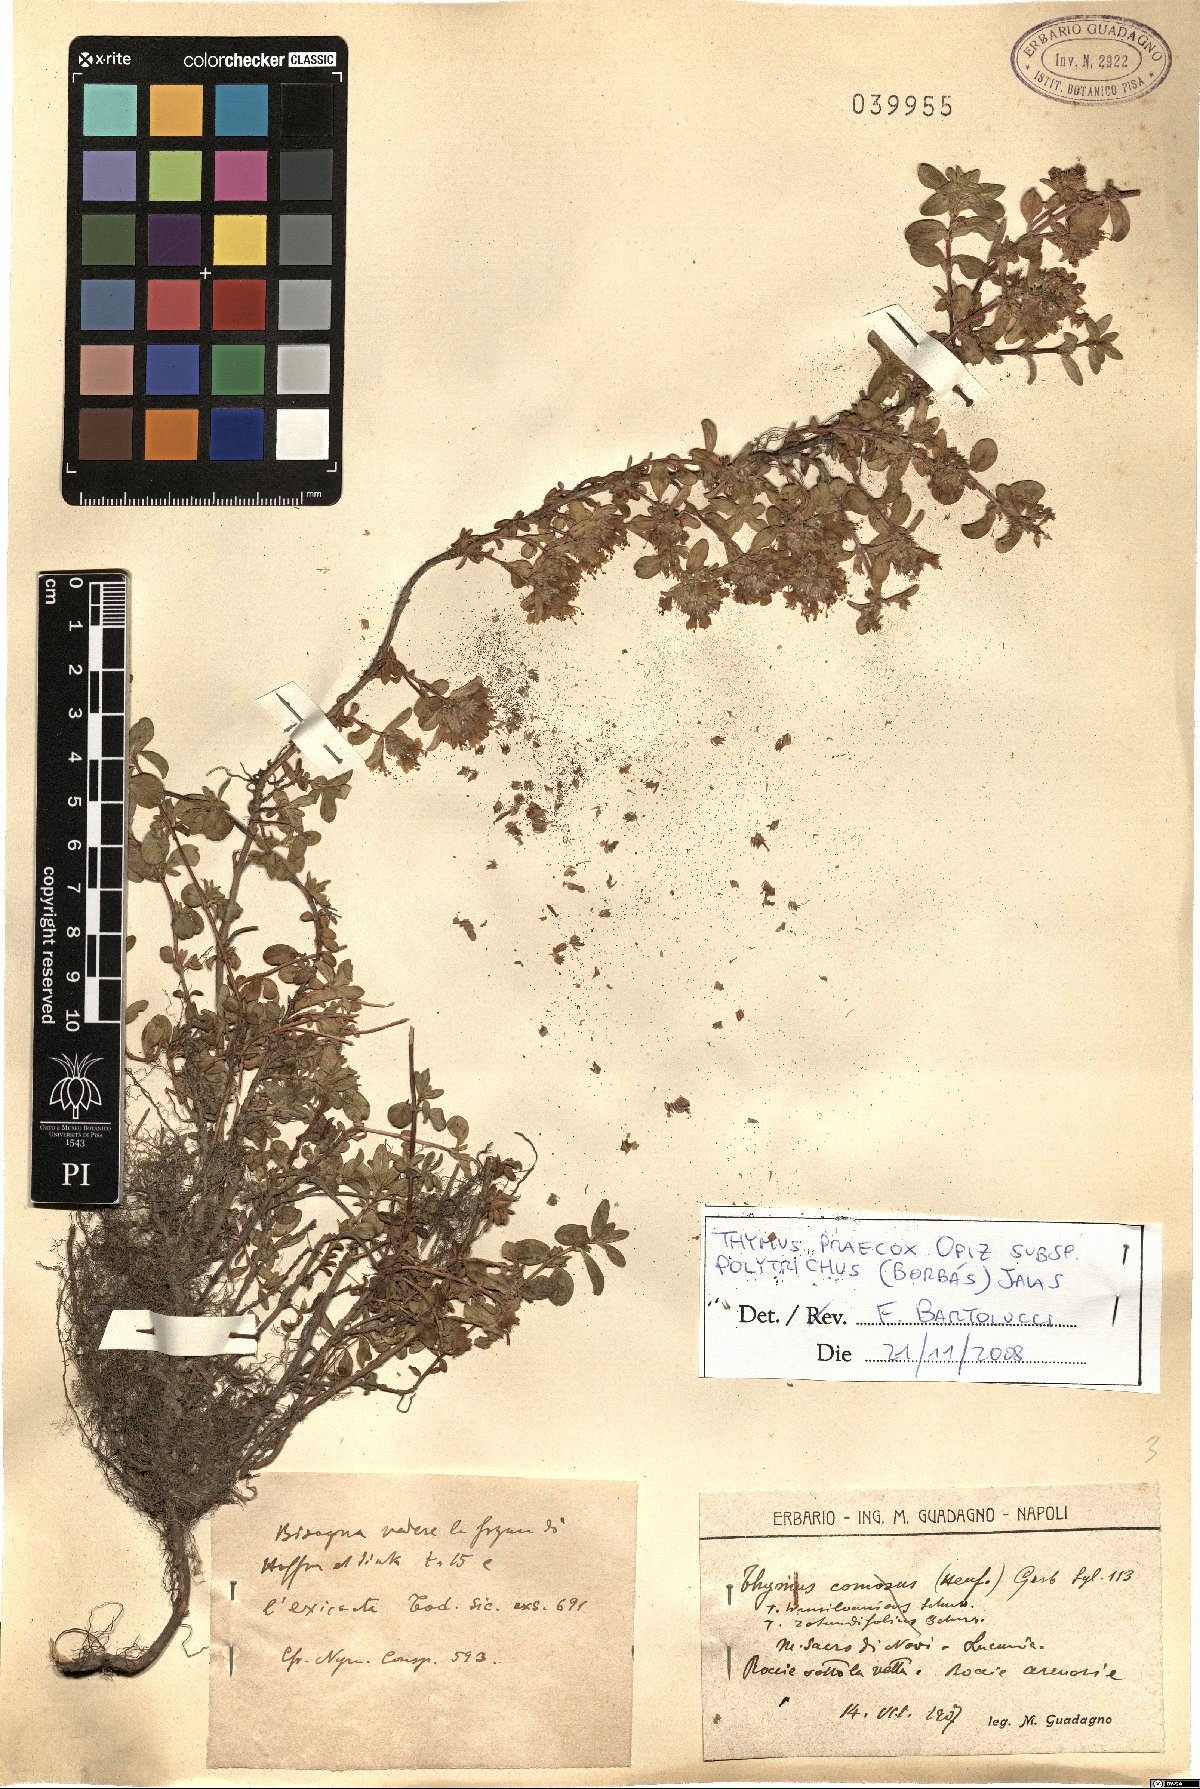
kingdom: Plantae
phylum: Tracheophyta
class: Magnoliopsida
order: Lamiales
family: Lamiaceae
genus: Thymus
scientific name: Thymus praecox
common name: Wild thyme
